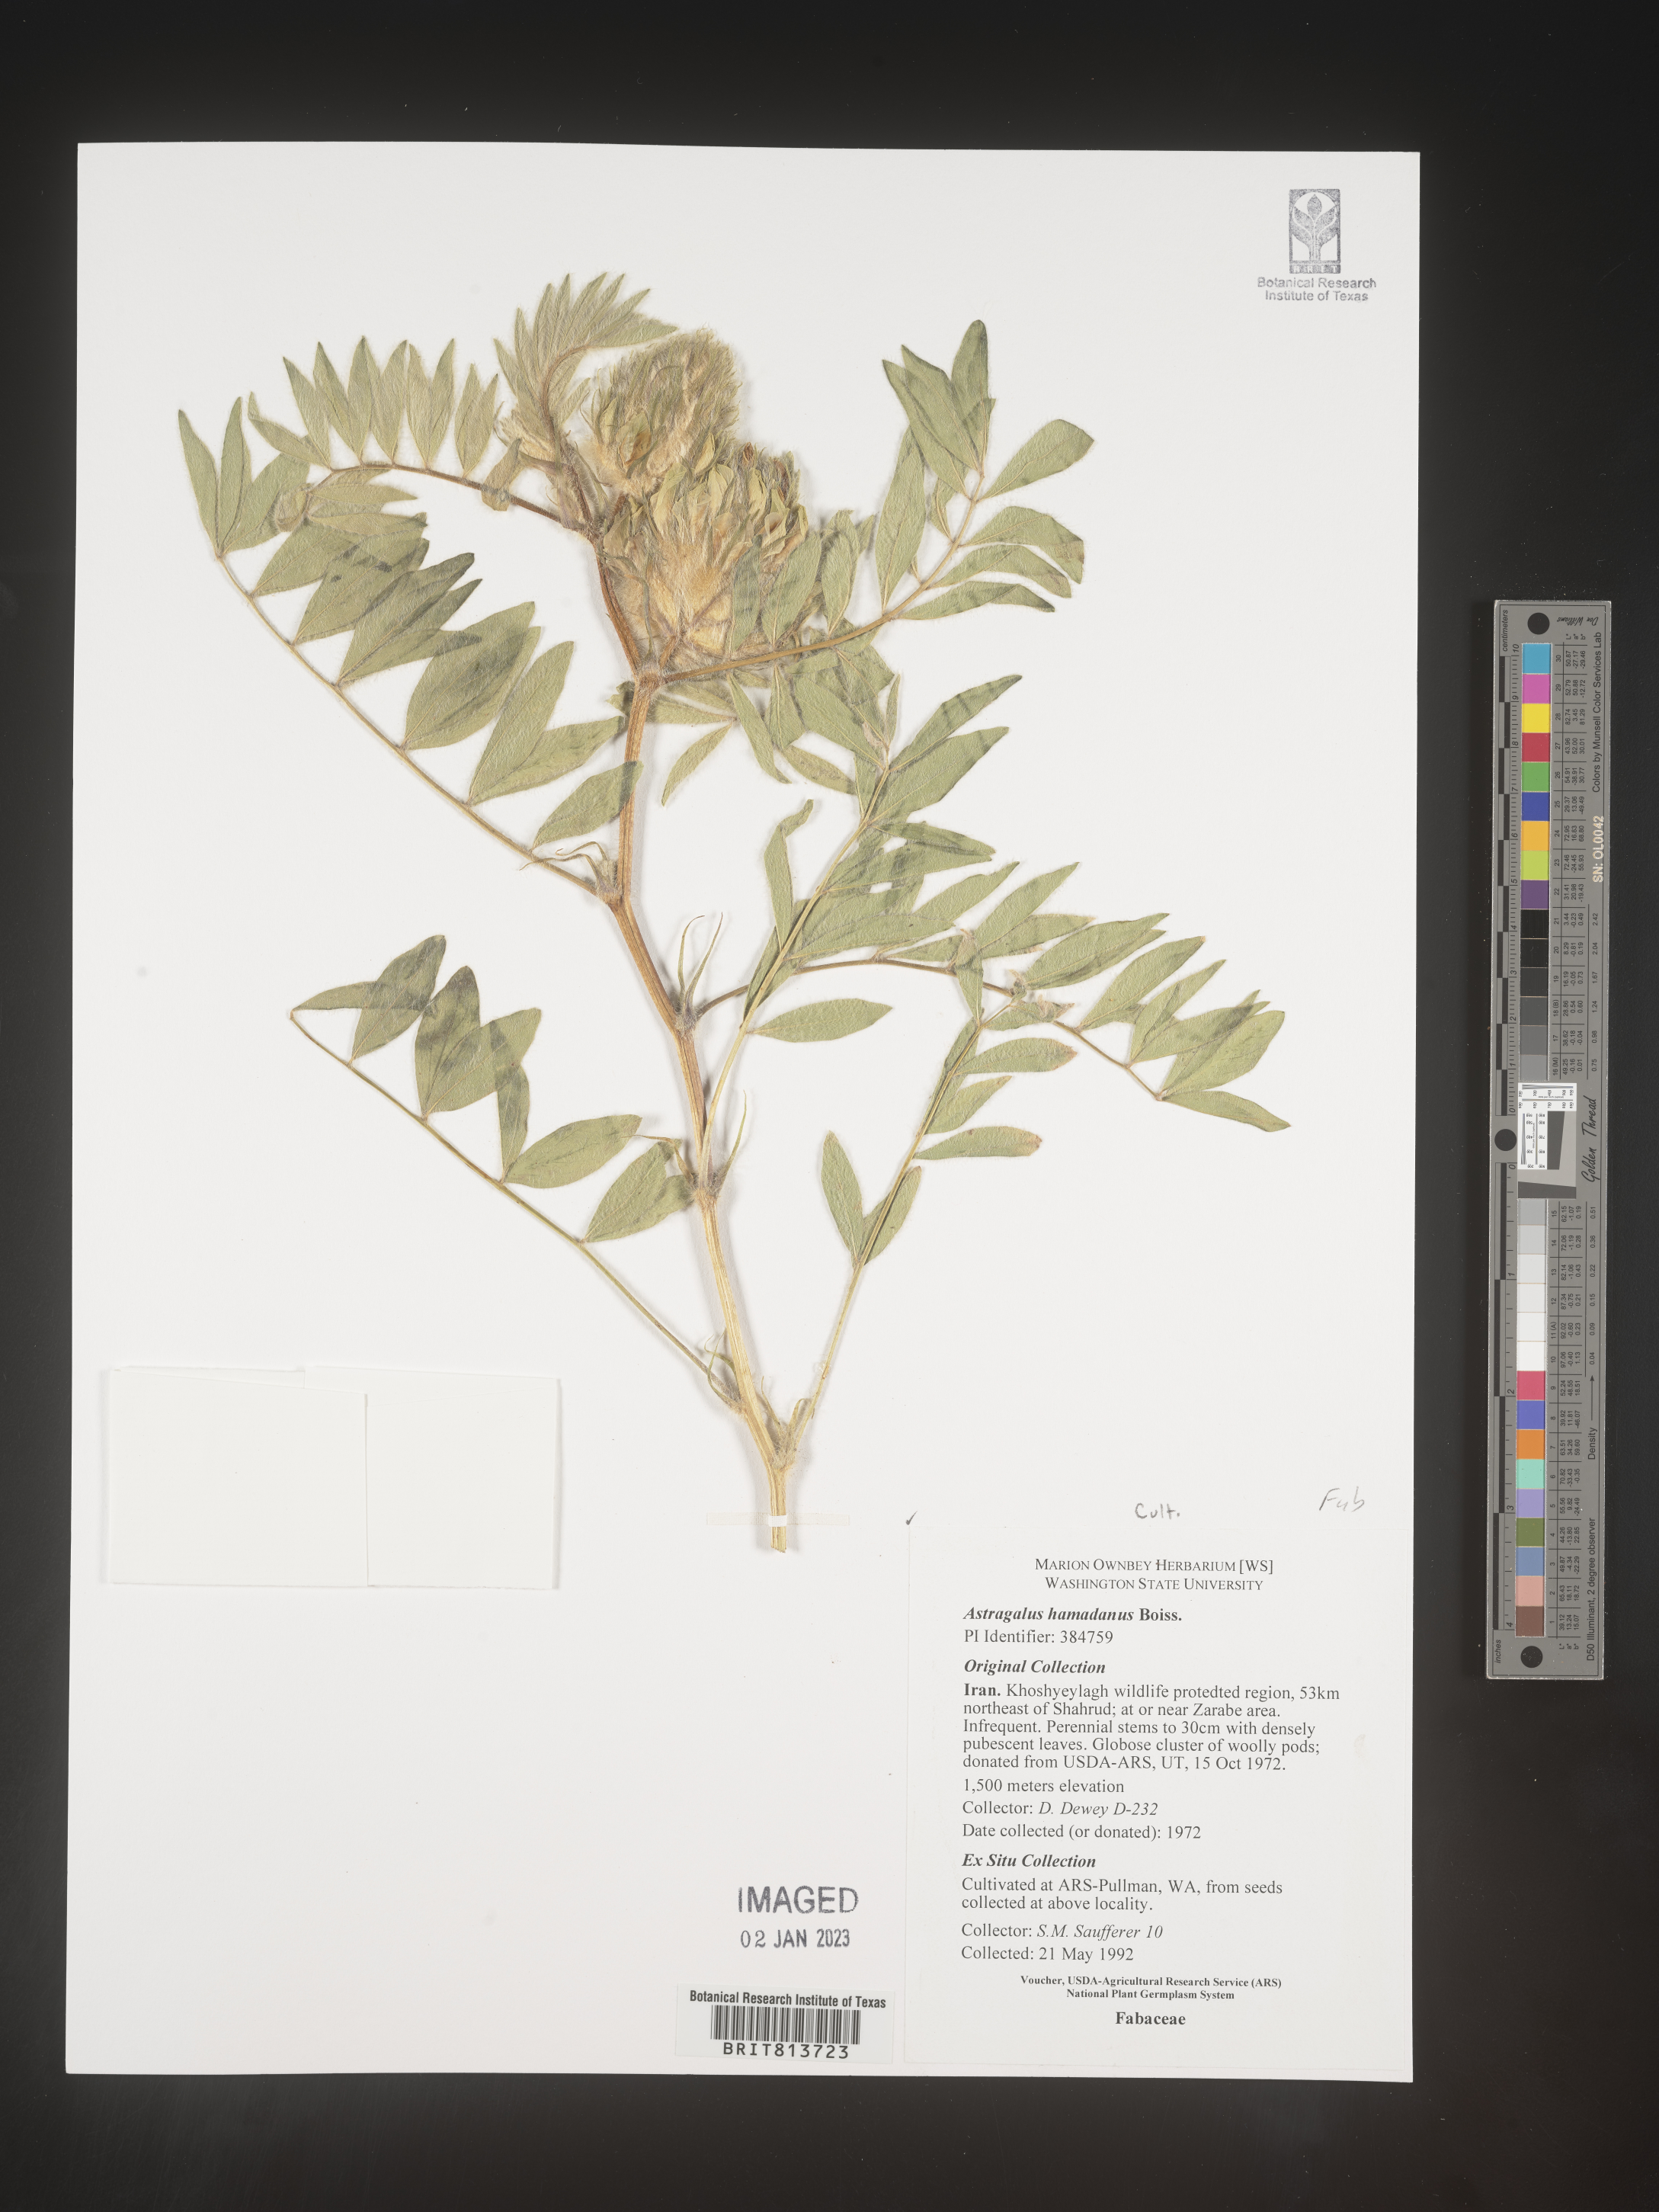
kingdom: Plantae
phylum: Tracheophyta
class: Magnoliopsida
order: Fabales
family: Fabaceae
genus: Astragalus
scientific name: Astragalus
